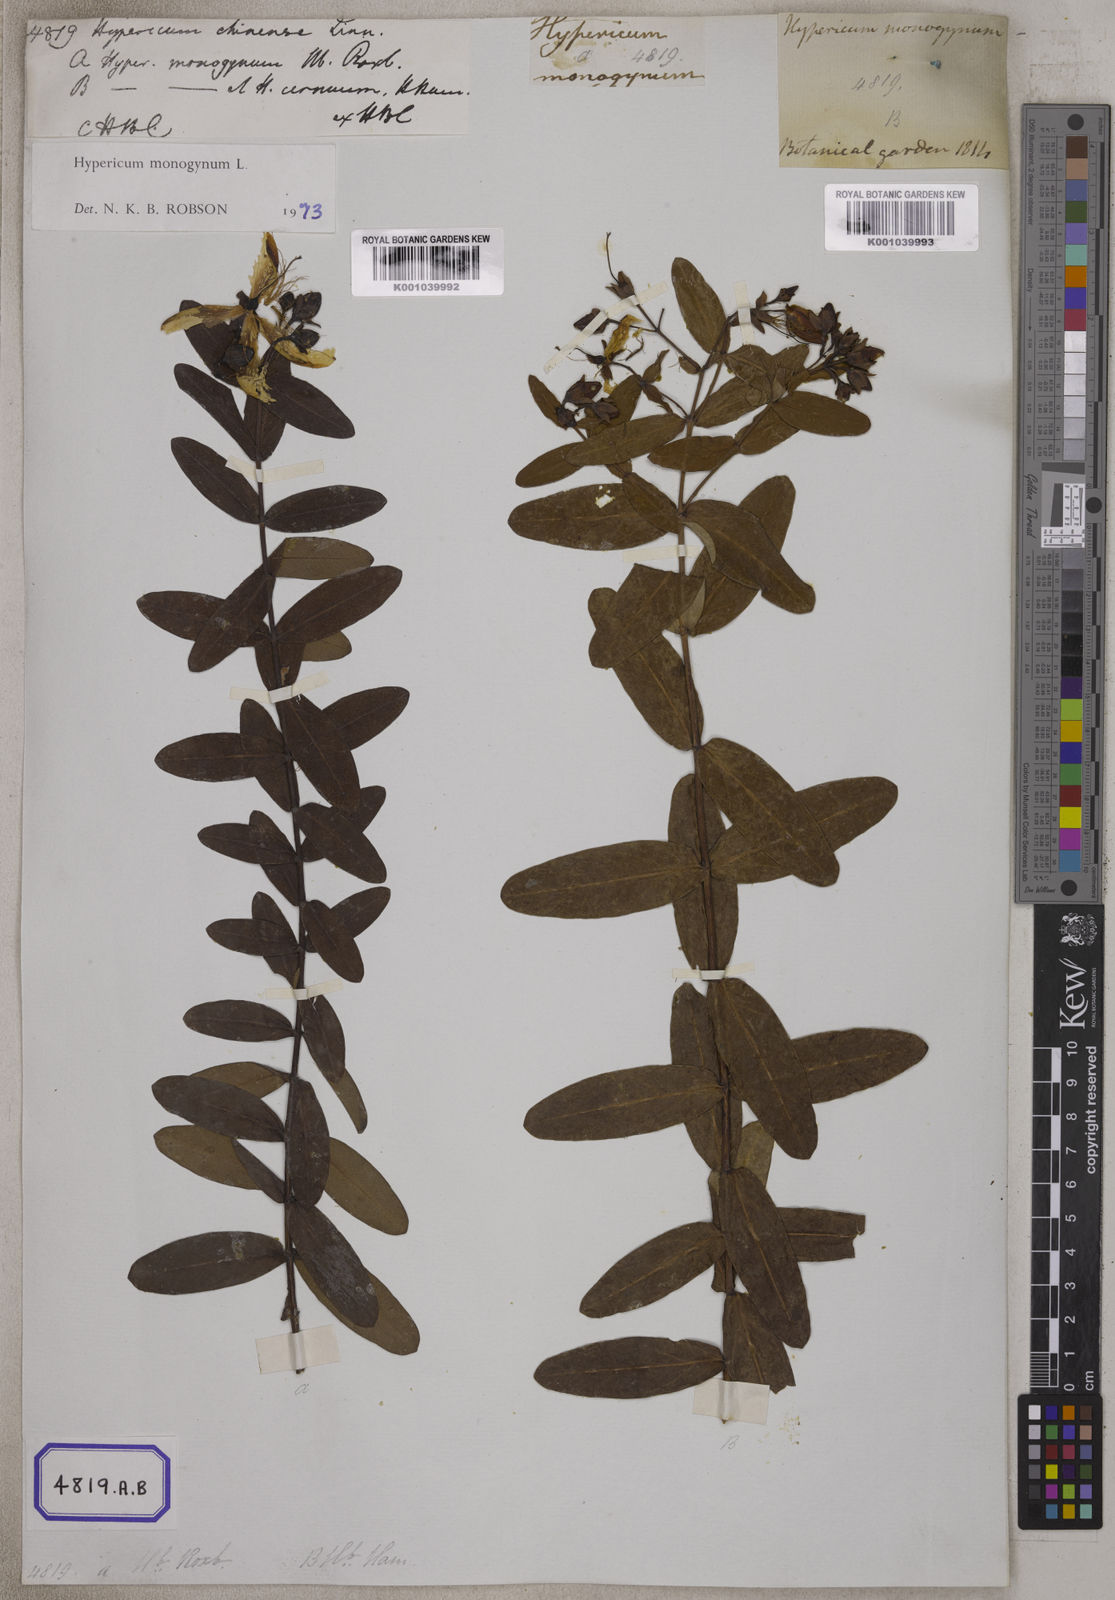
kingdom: Plantae
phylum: Tracheophyta
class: Magnoliopsida
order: Malpighiales
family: Hypericaceae
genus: Hypericum
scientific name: Hypericum monogynum
